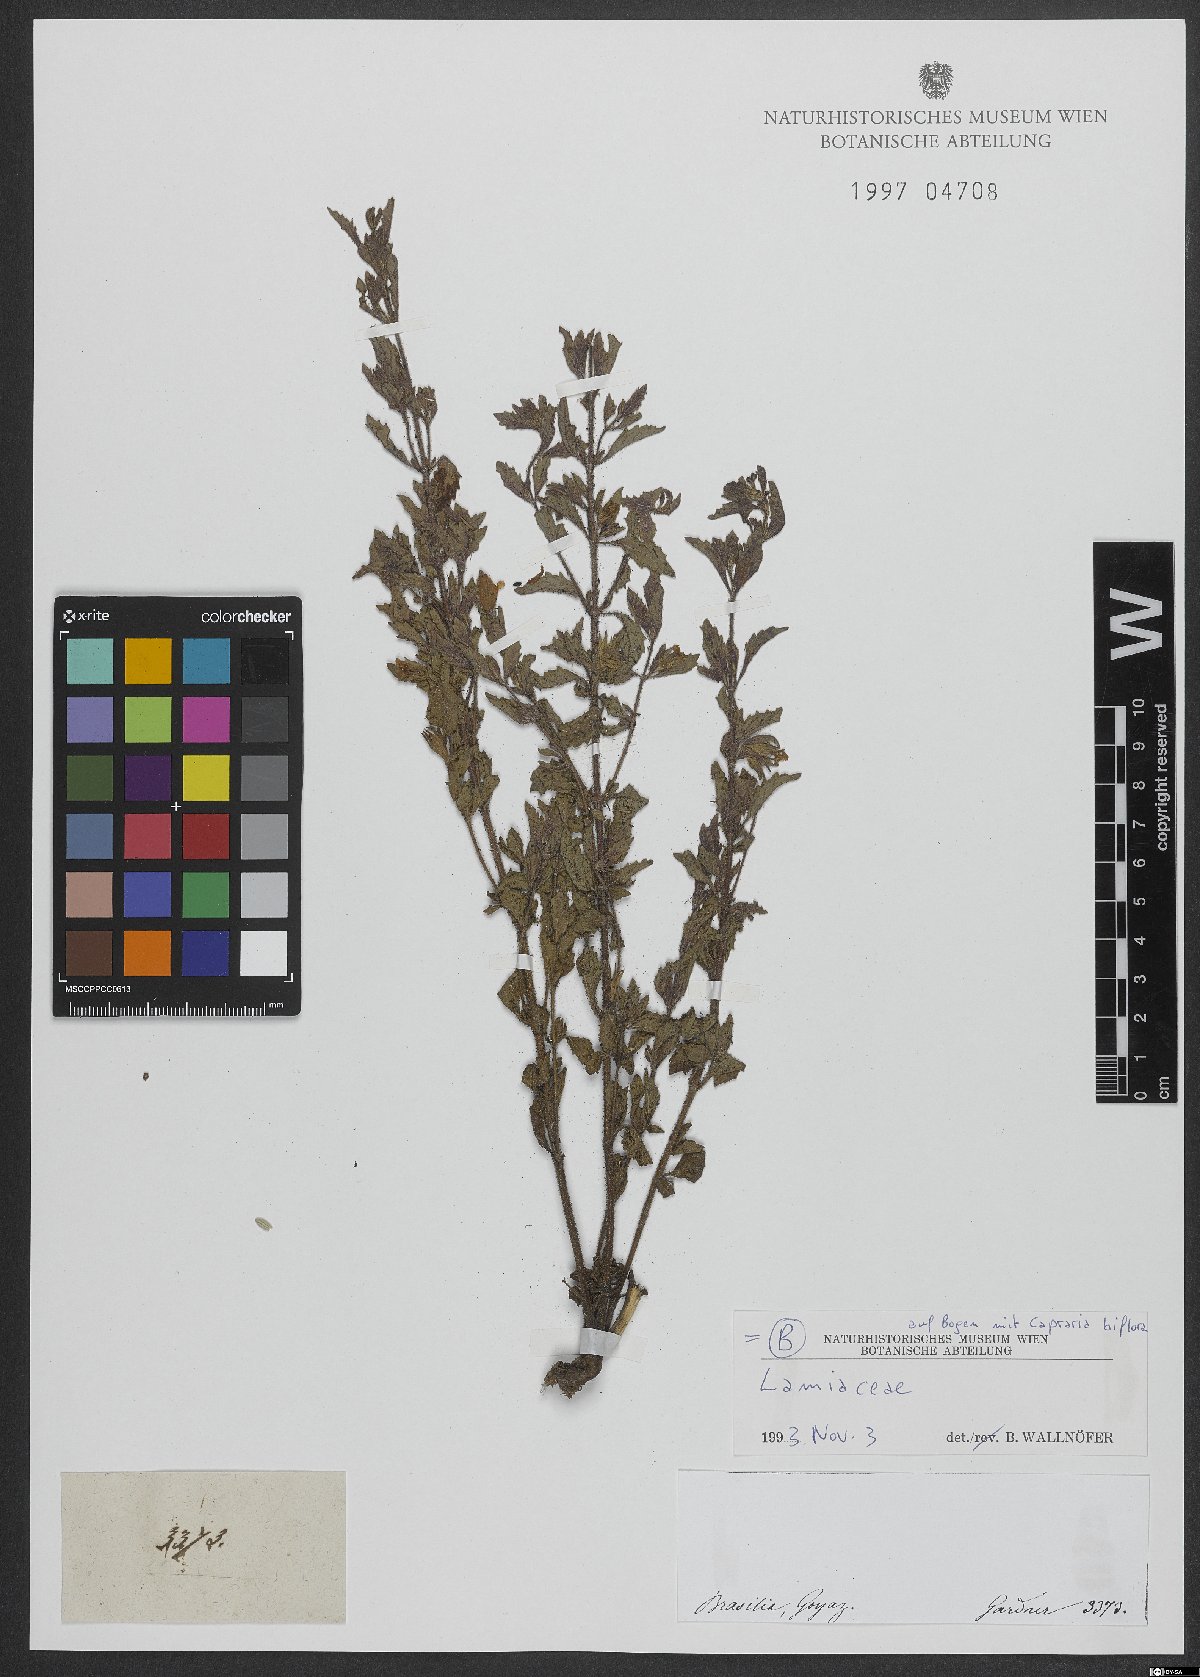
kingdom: Plantae
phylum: Tracheophyta
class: Magnoliopsida
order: Lamiales
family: Lamiaceae
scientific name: Lamiaceae
